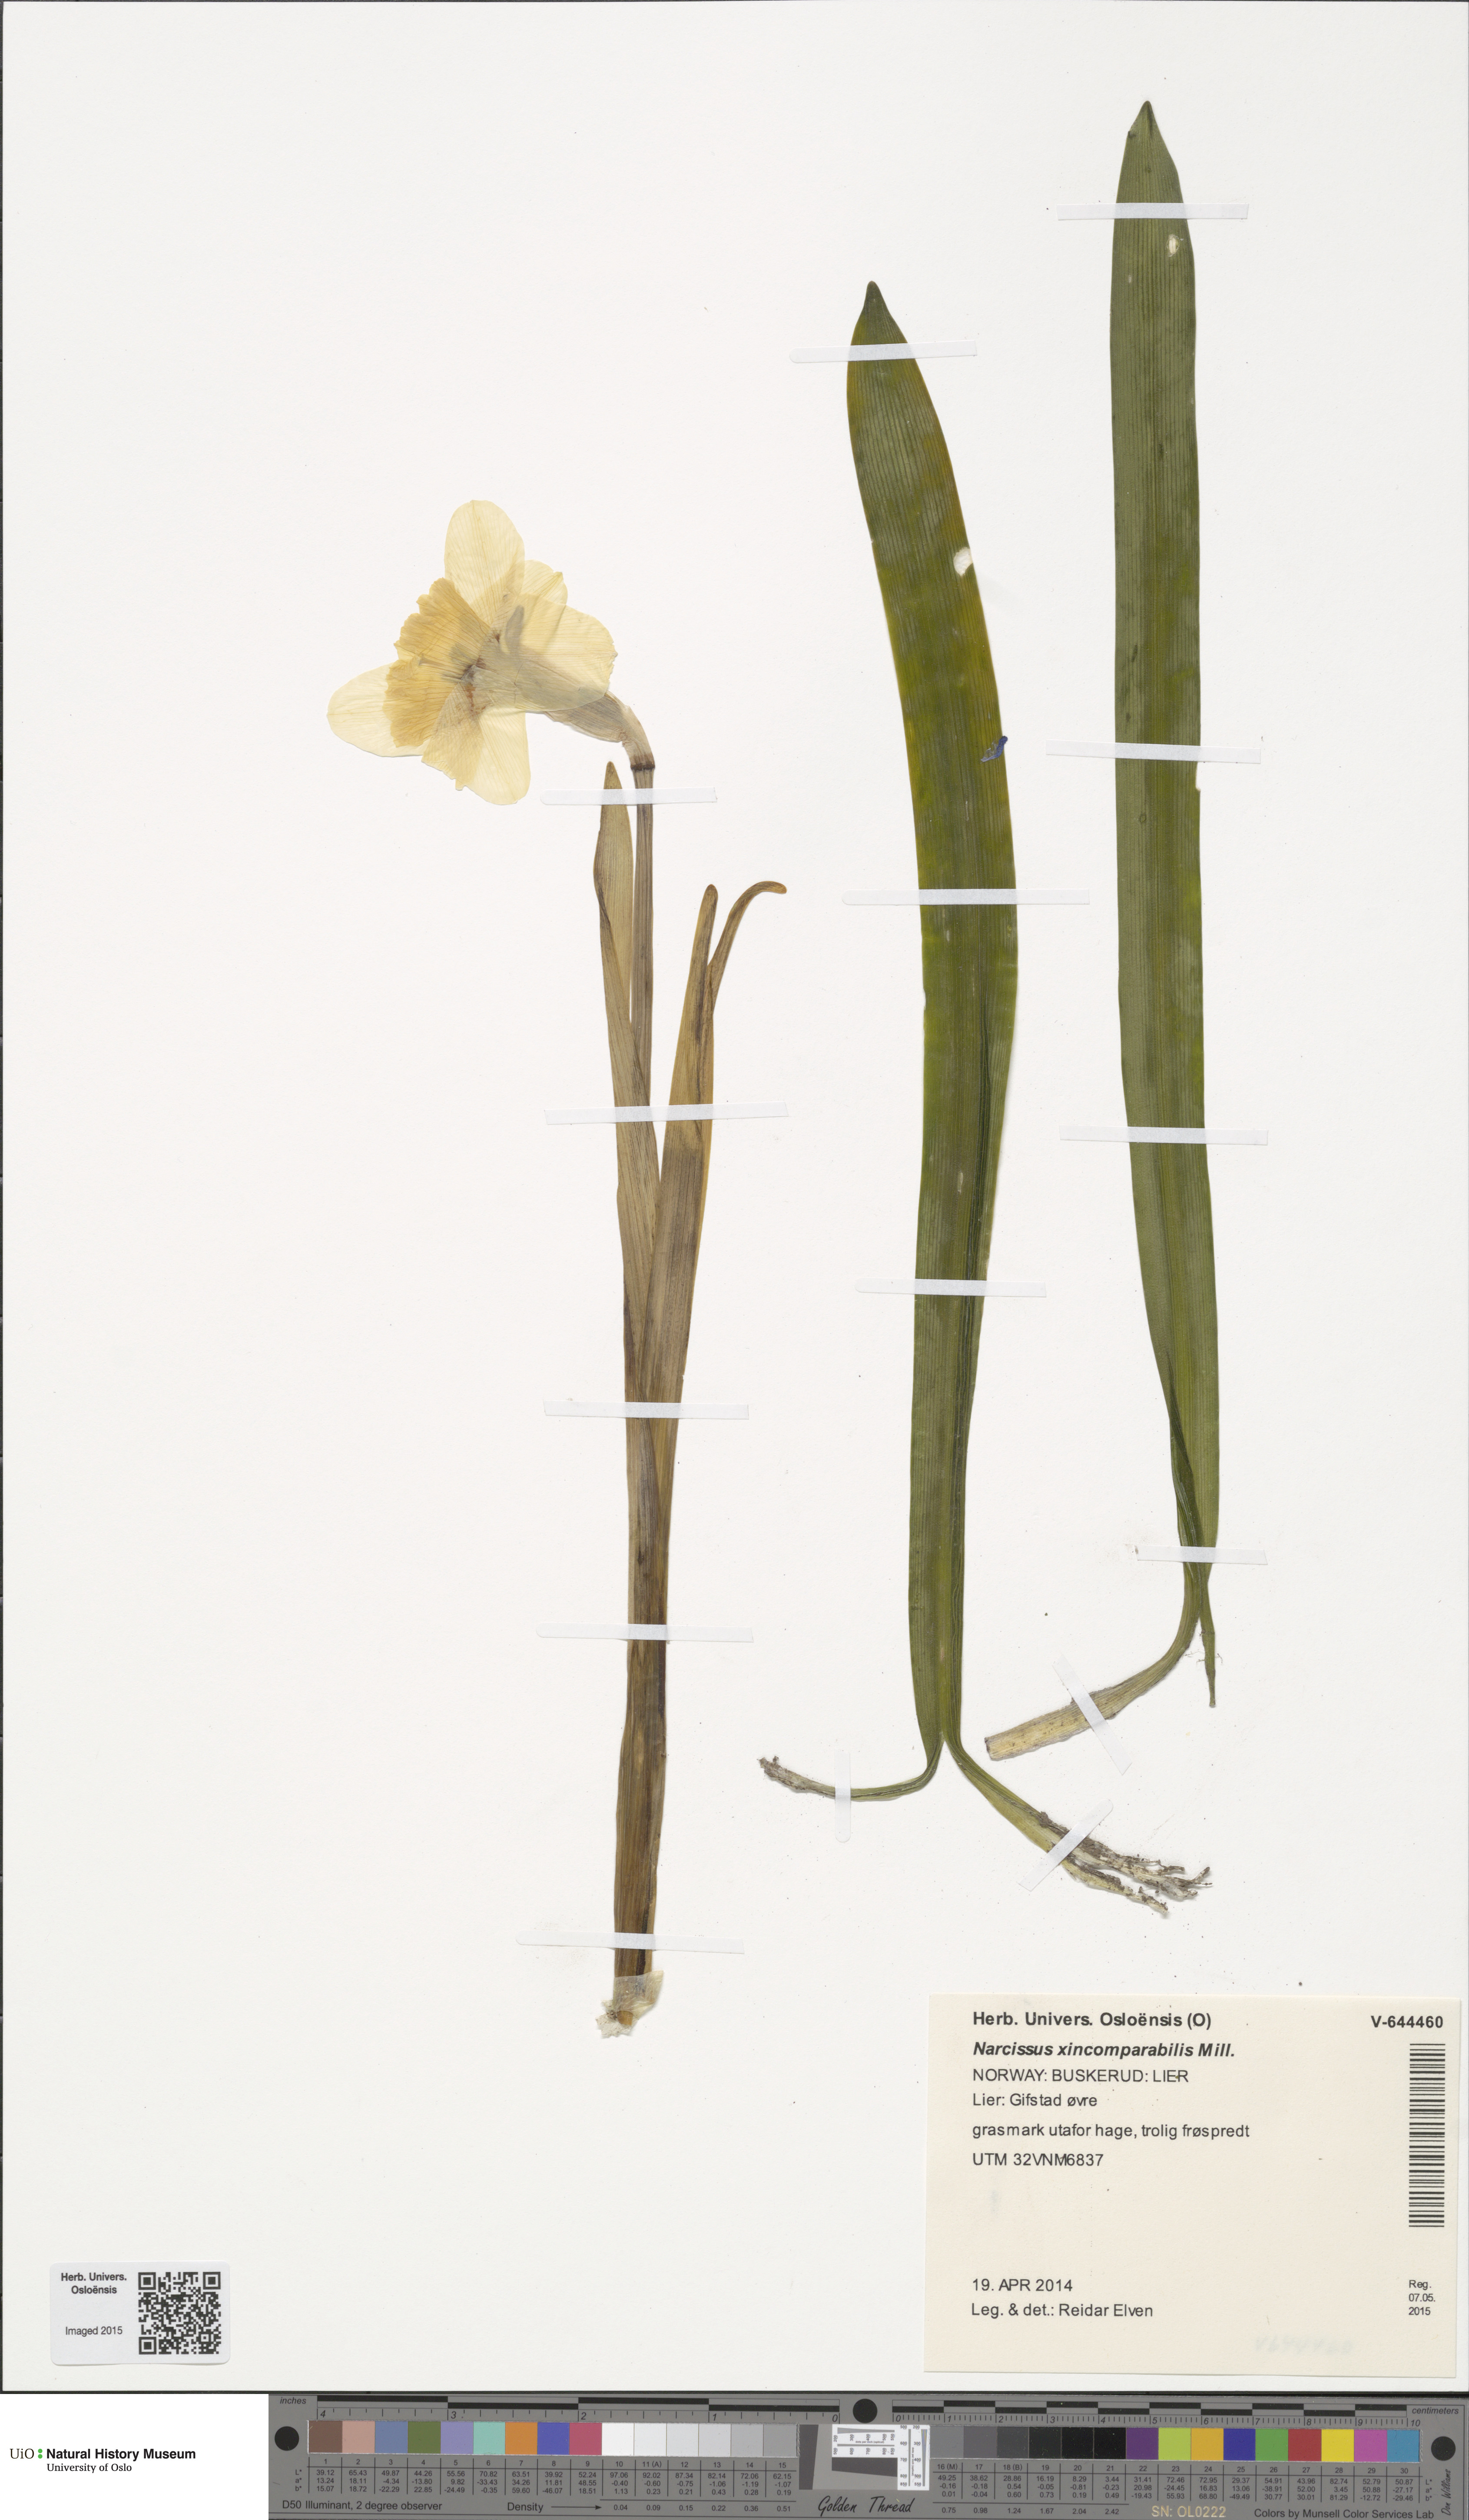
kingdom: Plantae
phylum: Tracheophyta
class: Liliopsida
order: Asparagales
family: Amaryllidaceae
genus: Narcissus
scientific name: Narcissus incomparabilis
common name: Nonesuch daffodil
